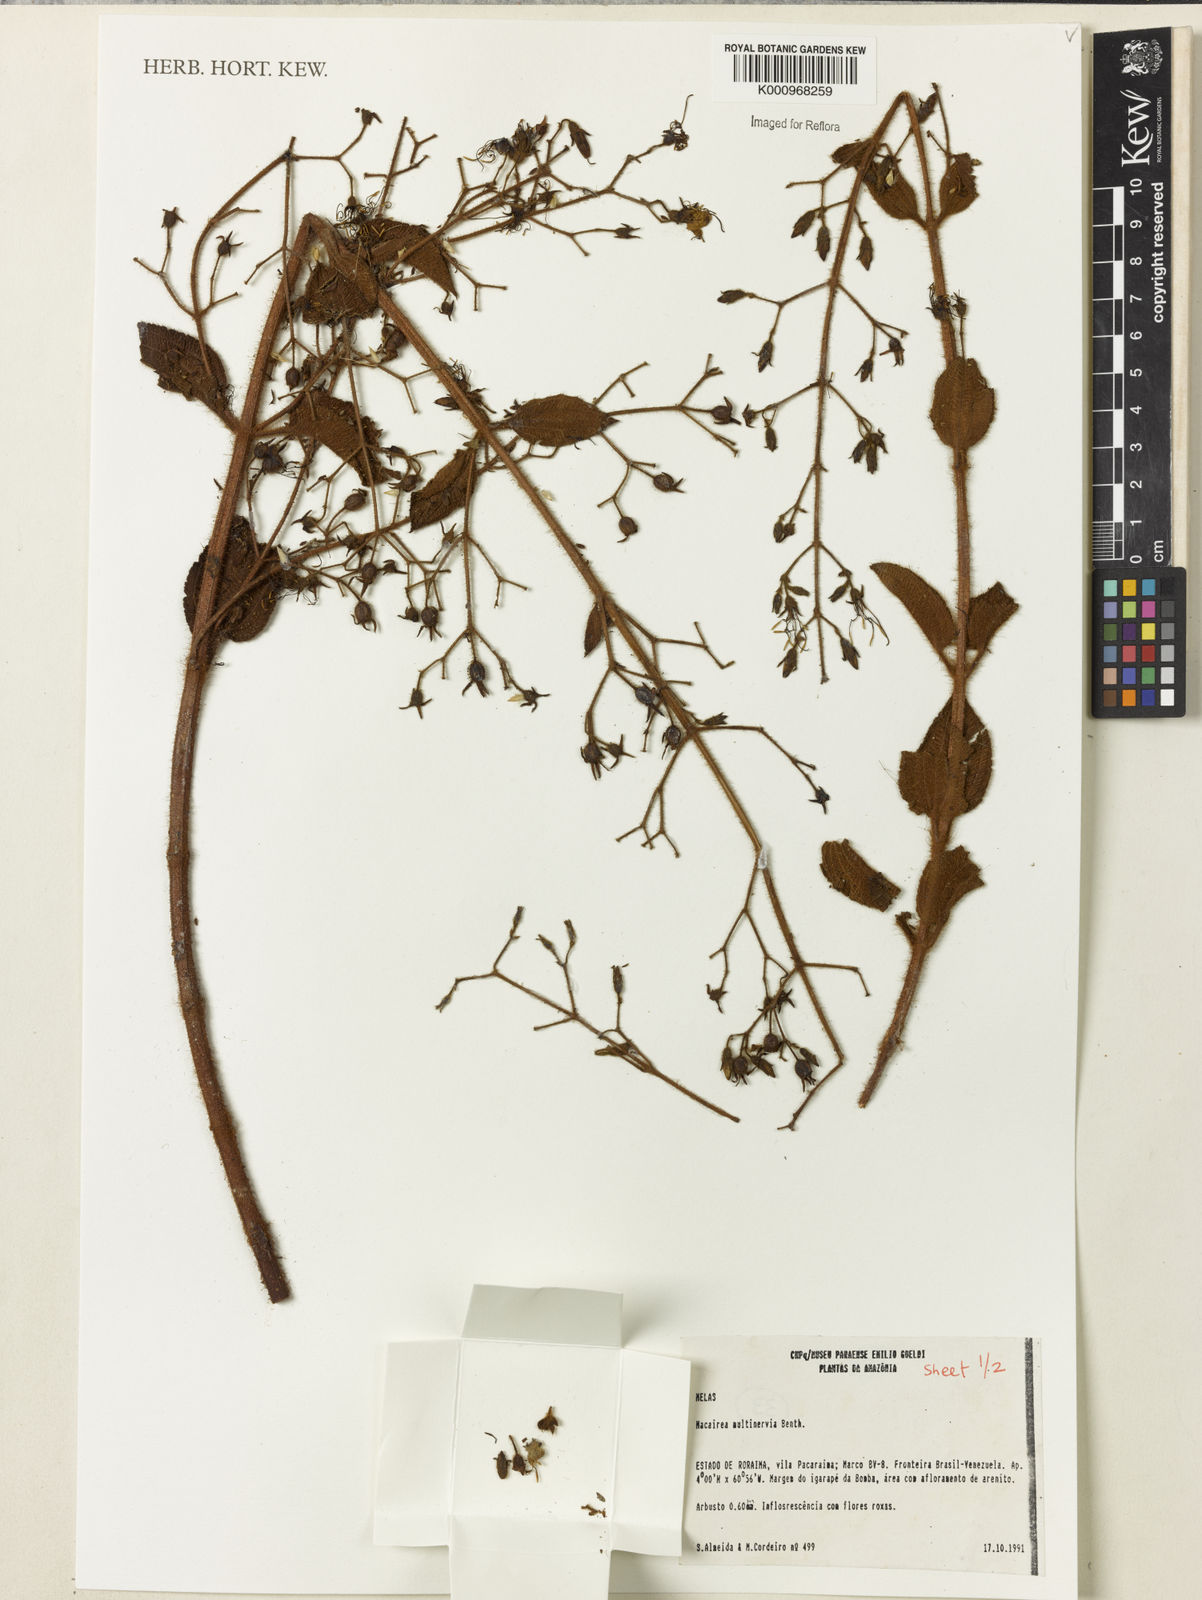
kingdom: Plantae
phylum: Tracheophyta
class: Magnoliopsida
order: Myrtales
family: Melastomataceae
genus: Macairea
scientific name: Macairea multinervia
